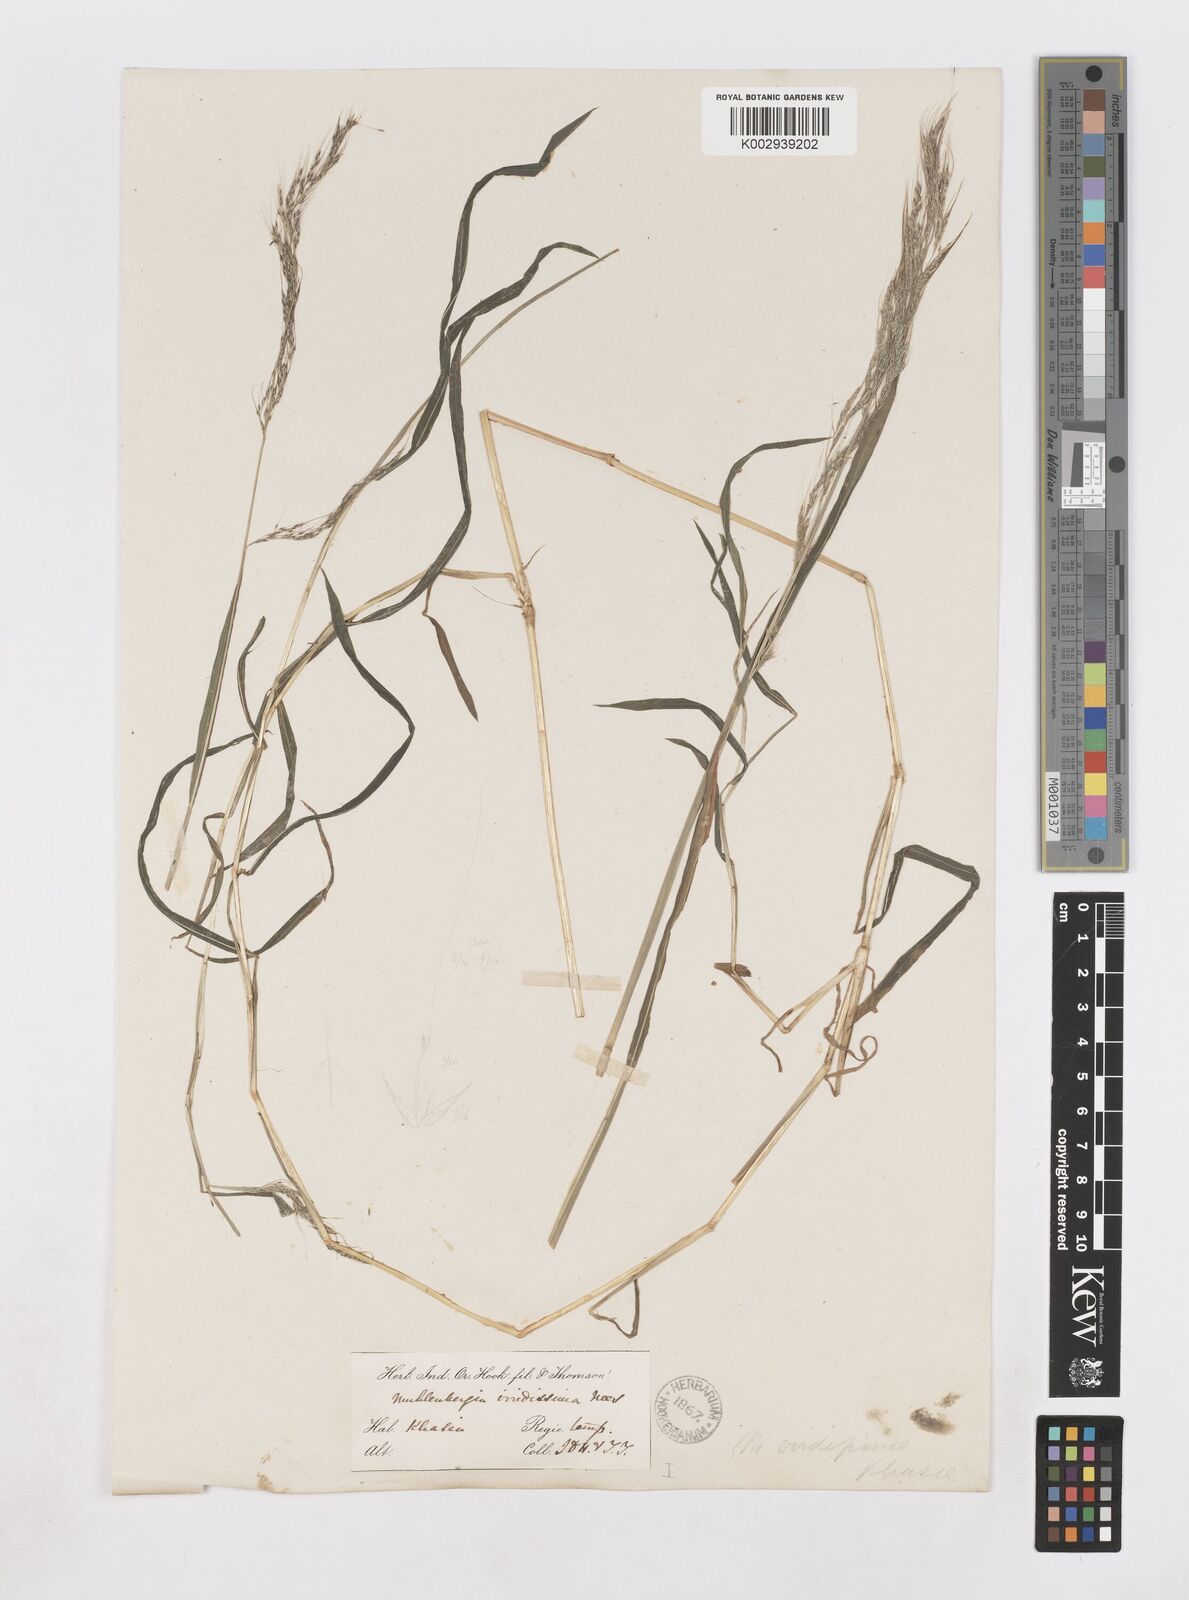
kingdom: Plantae
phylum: Tracheophyta
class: Liliopsida
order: Poales
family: Poaceae
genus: Muhlenbergia
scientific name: Muhlenbergia huegelii
